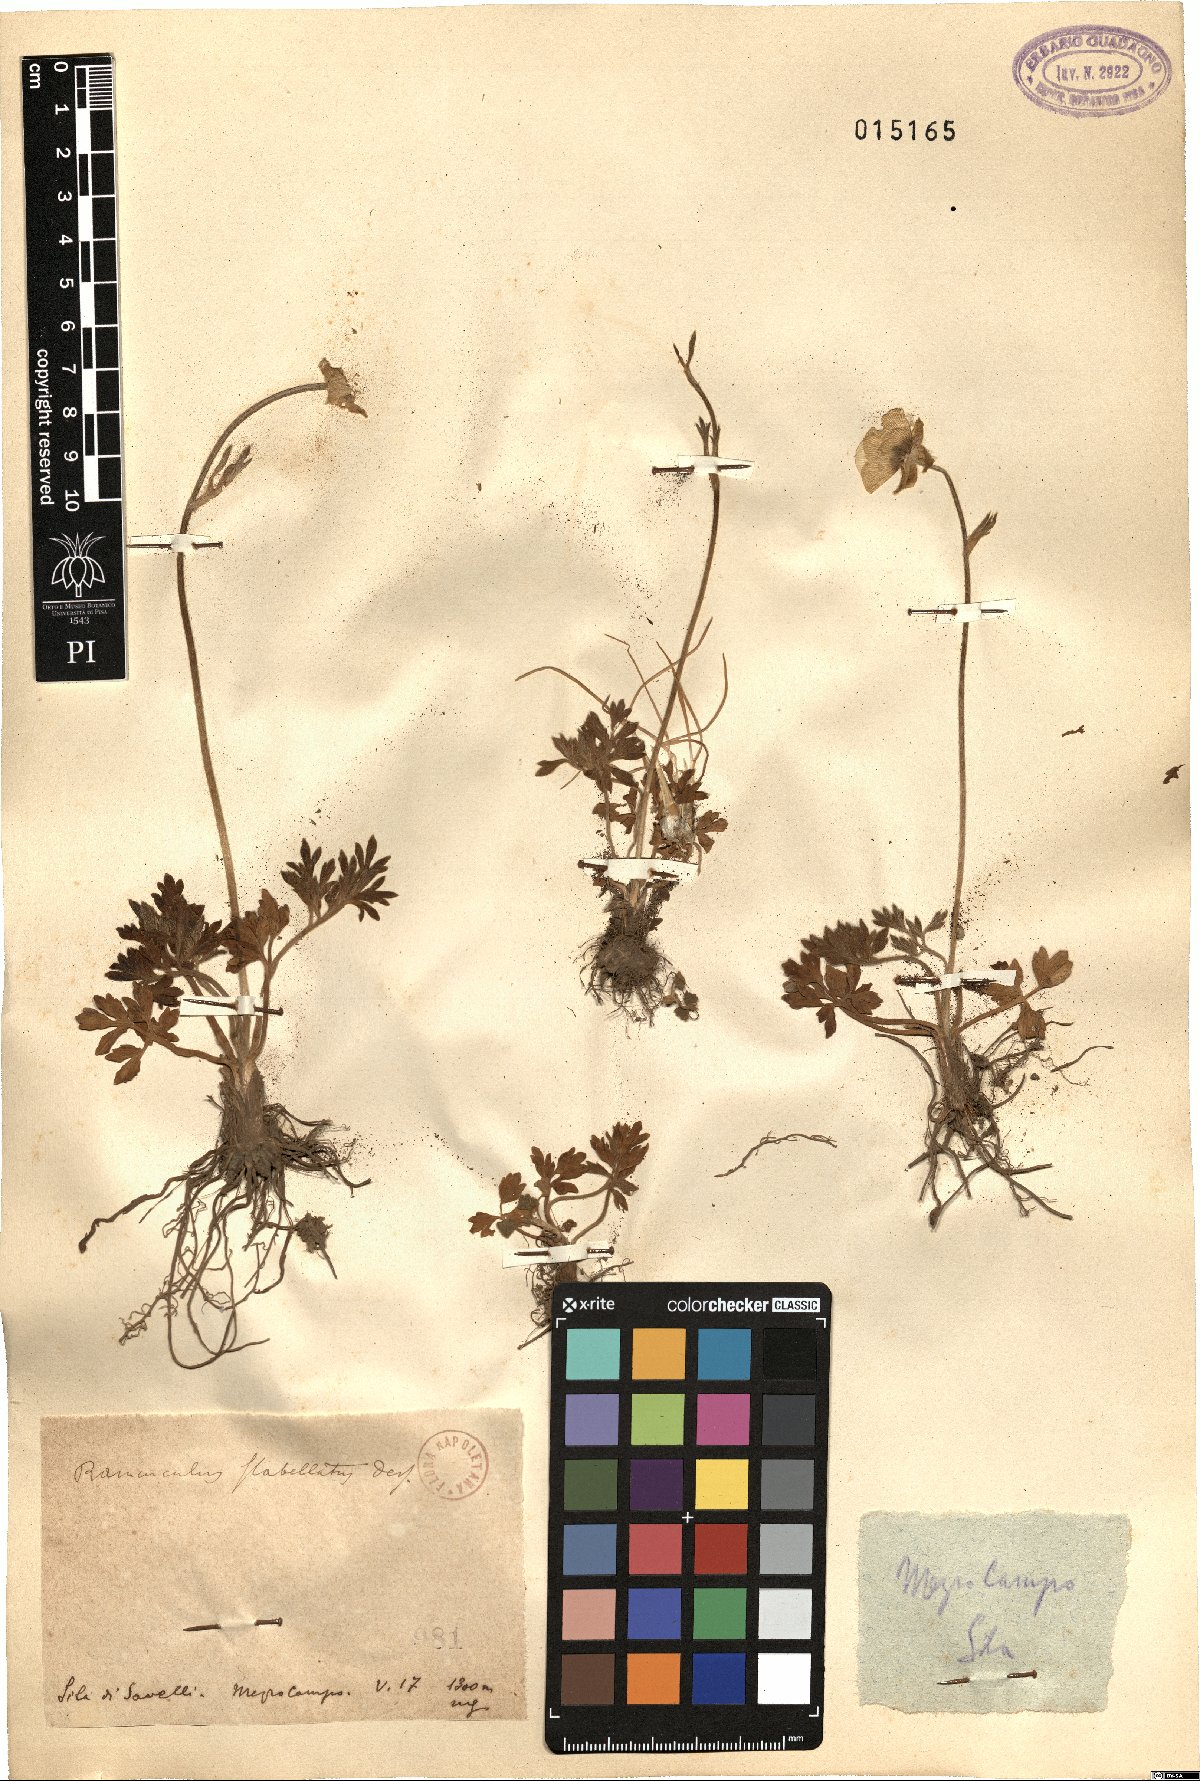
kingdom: Plantae
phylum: Tracheophyta
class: Magnoliopsida
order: Ranunculales
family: Ranunculaceae
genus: Ranunculus
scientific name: Ranunculus paludosus
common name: Jersey buttercup
